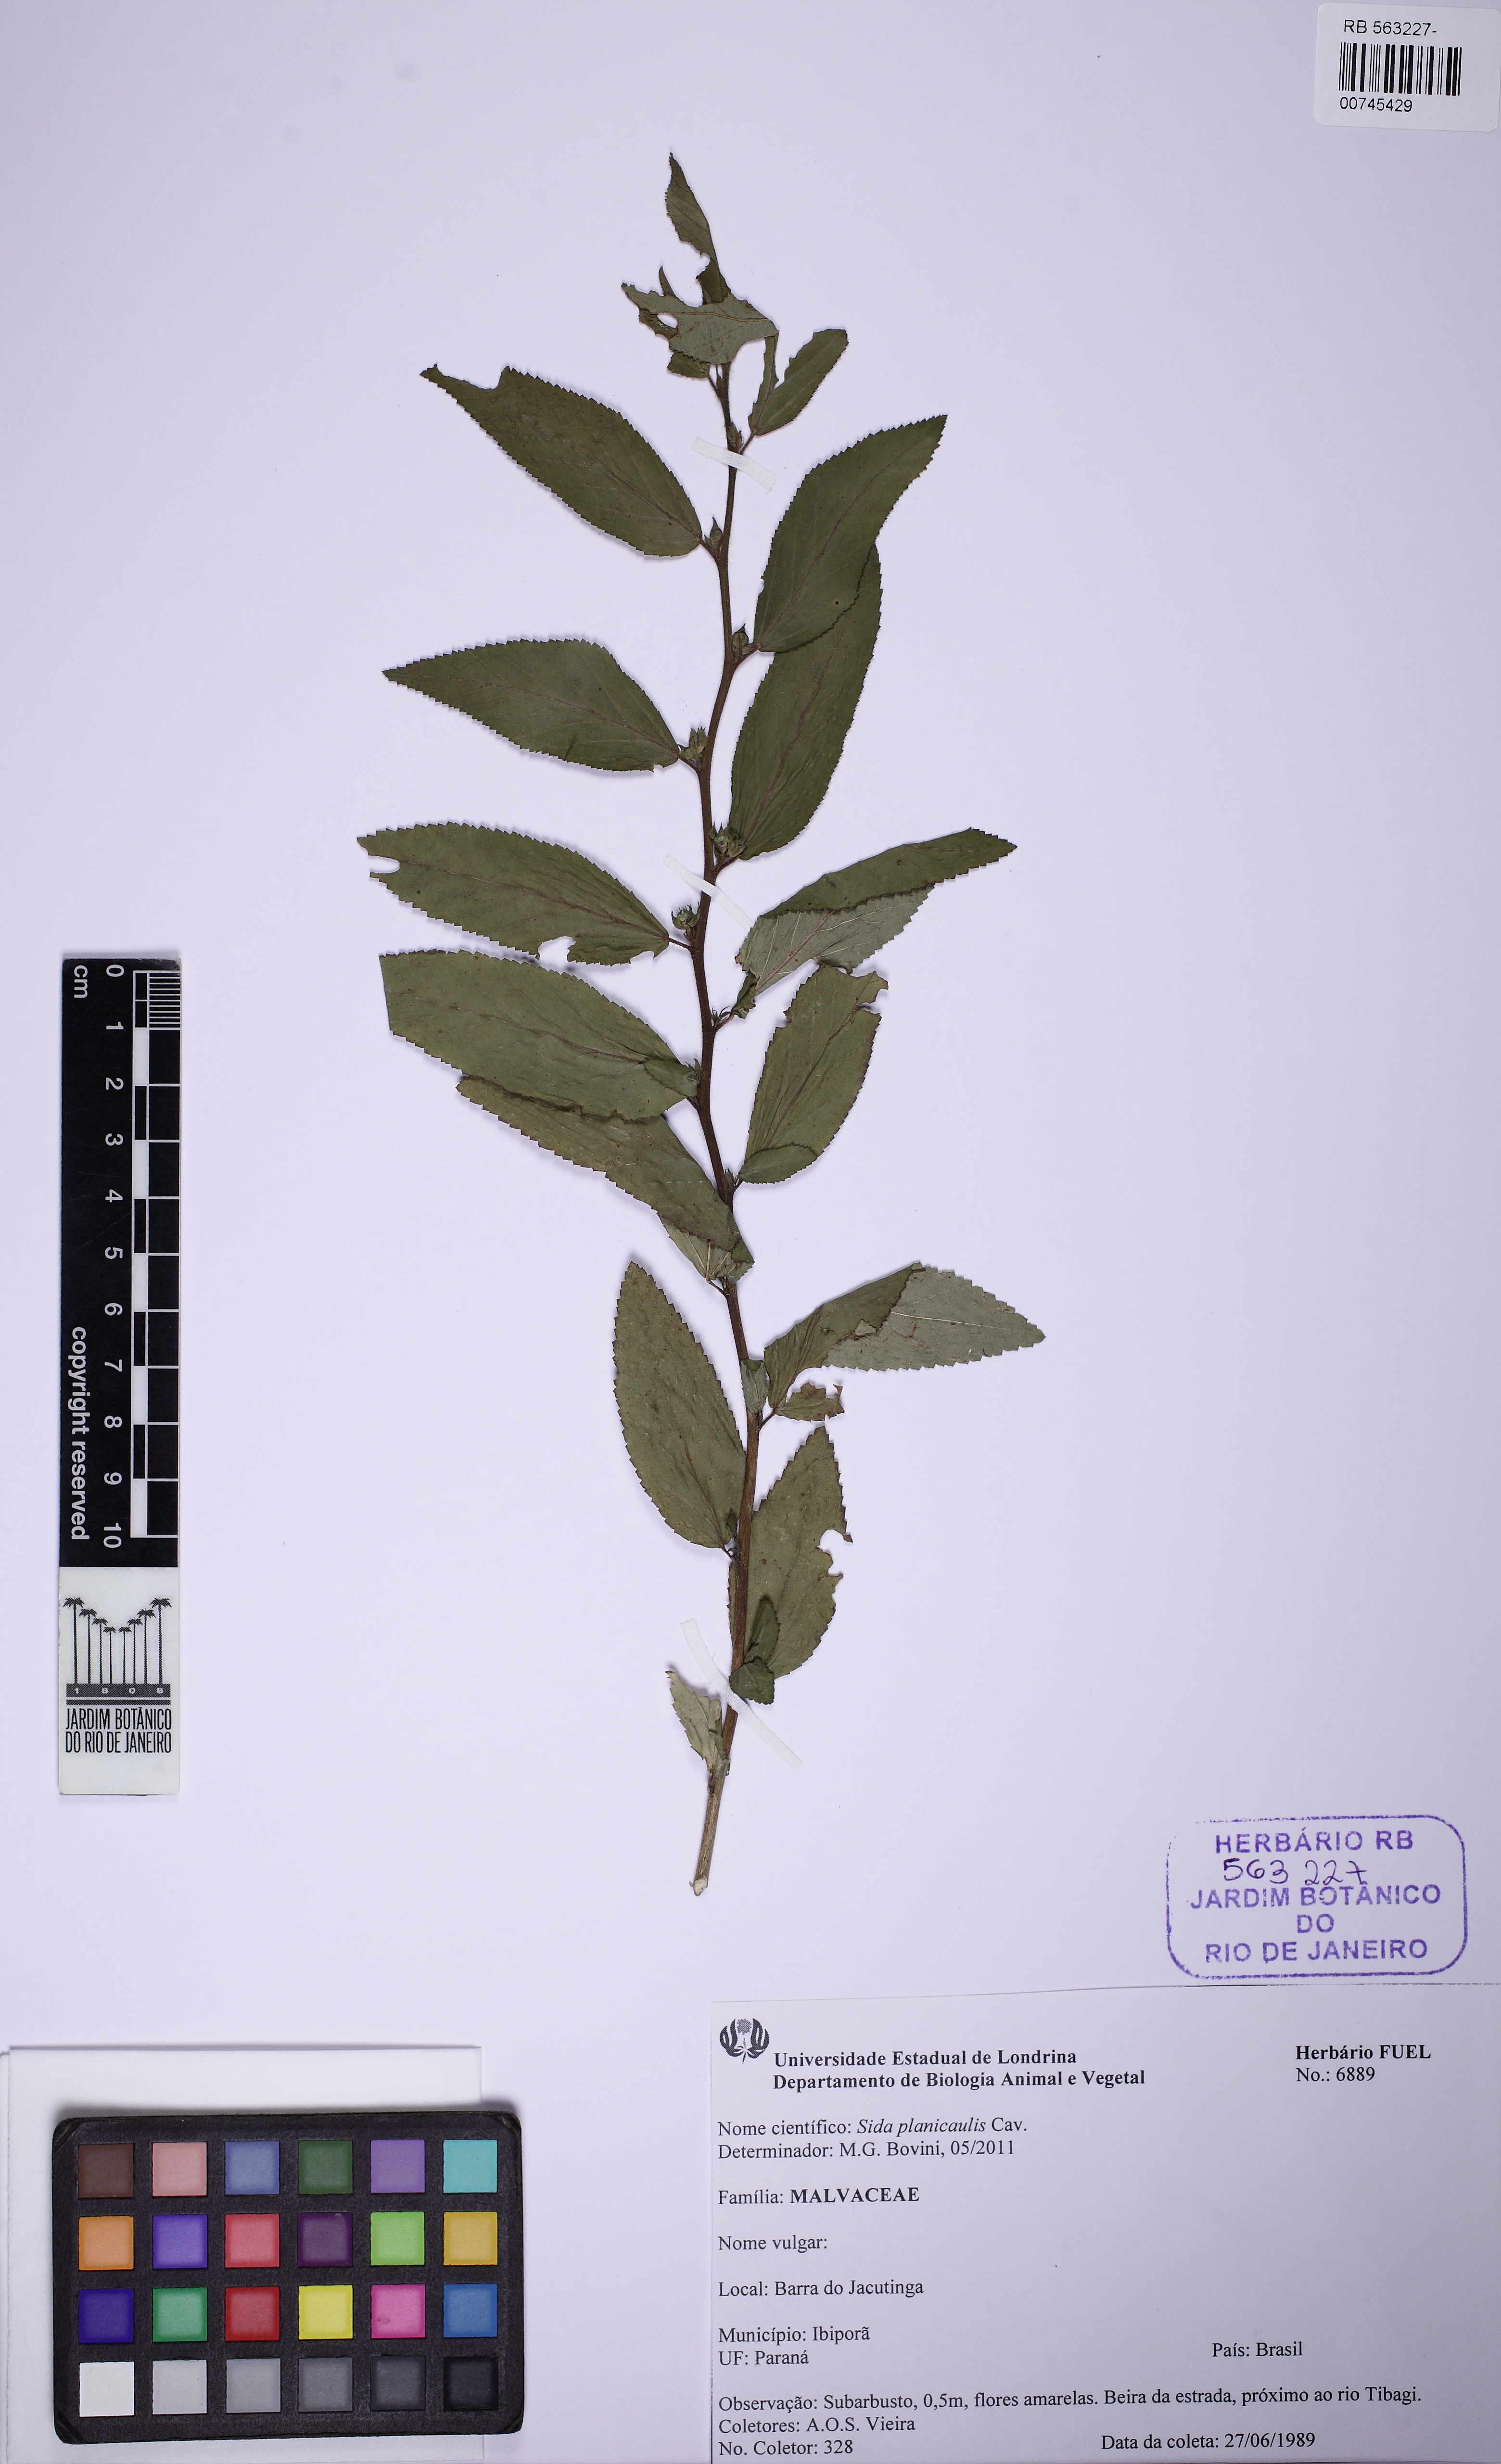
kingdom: Plantae
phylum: Tracheophyta
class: Magnoliopsida
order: Malvales
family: Malvaceae
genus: Sida
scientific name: Sida planicaulis
